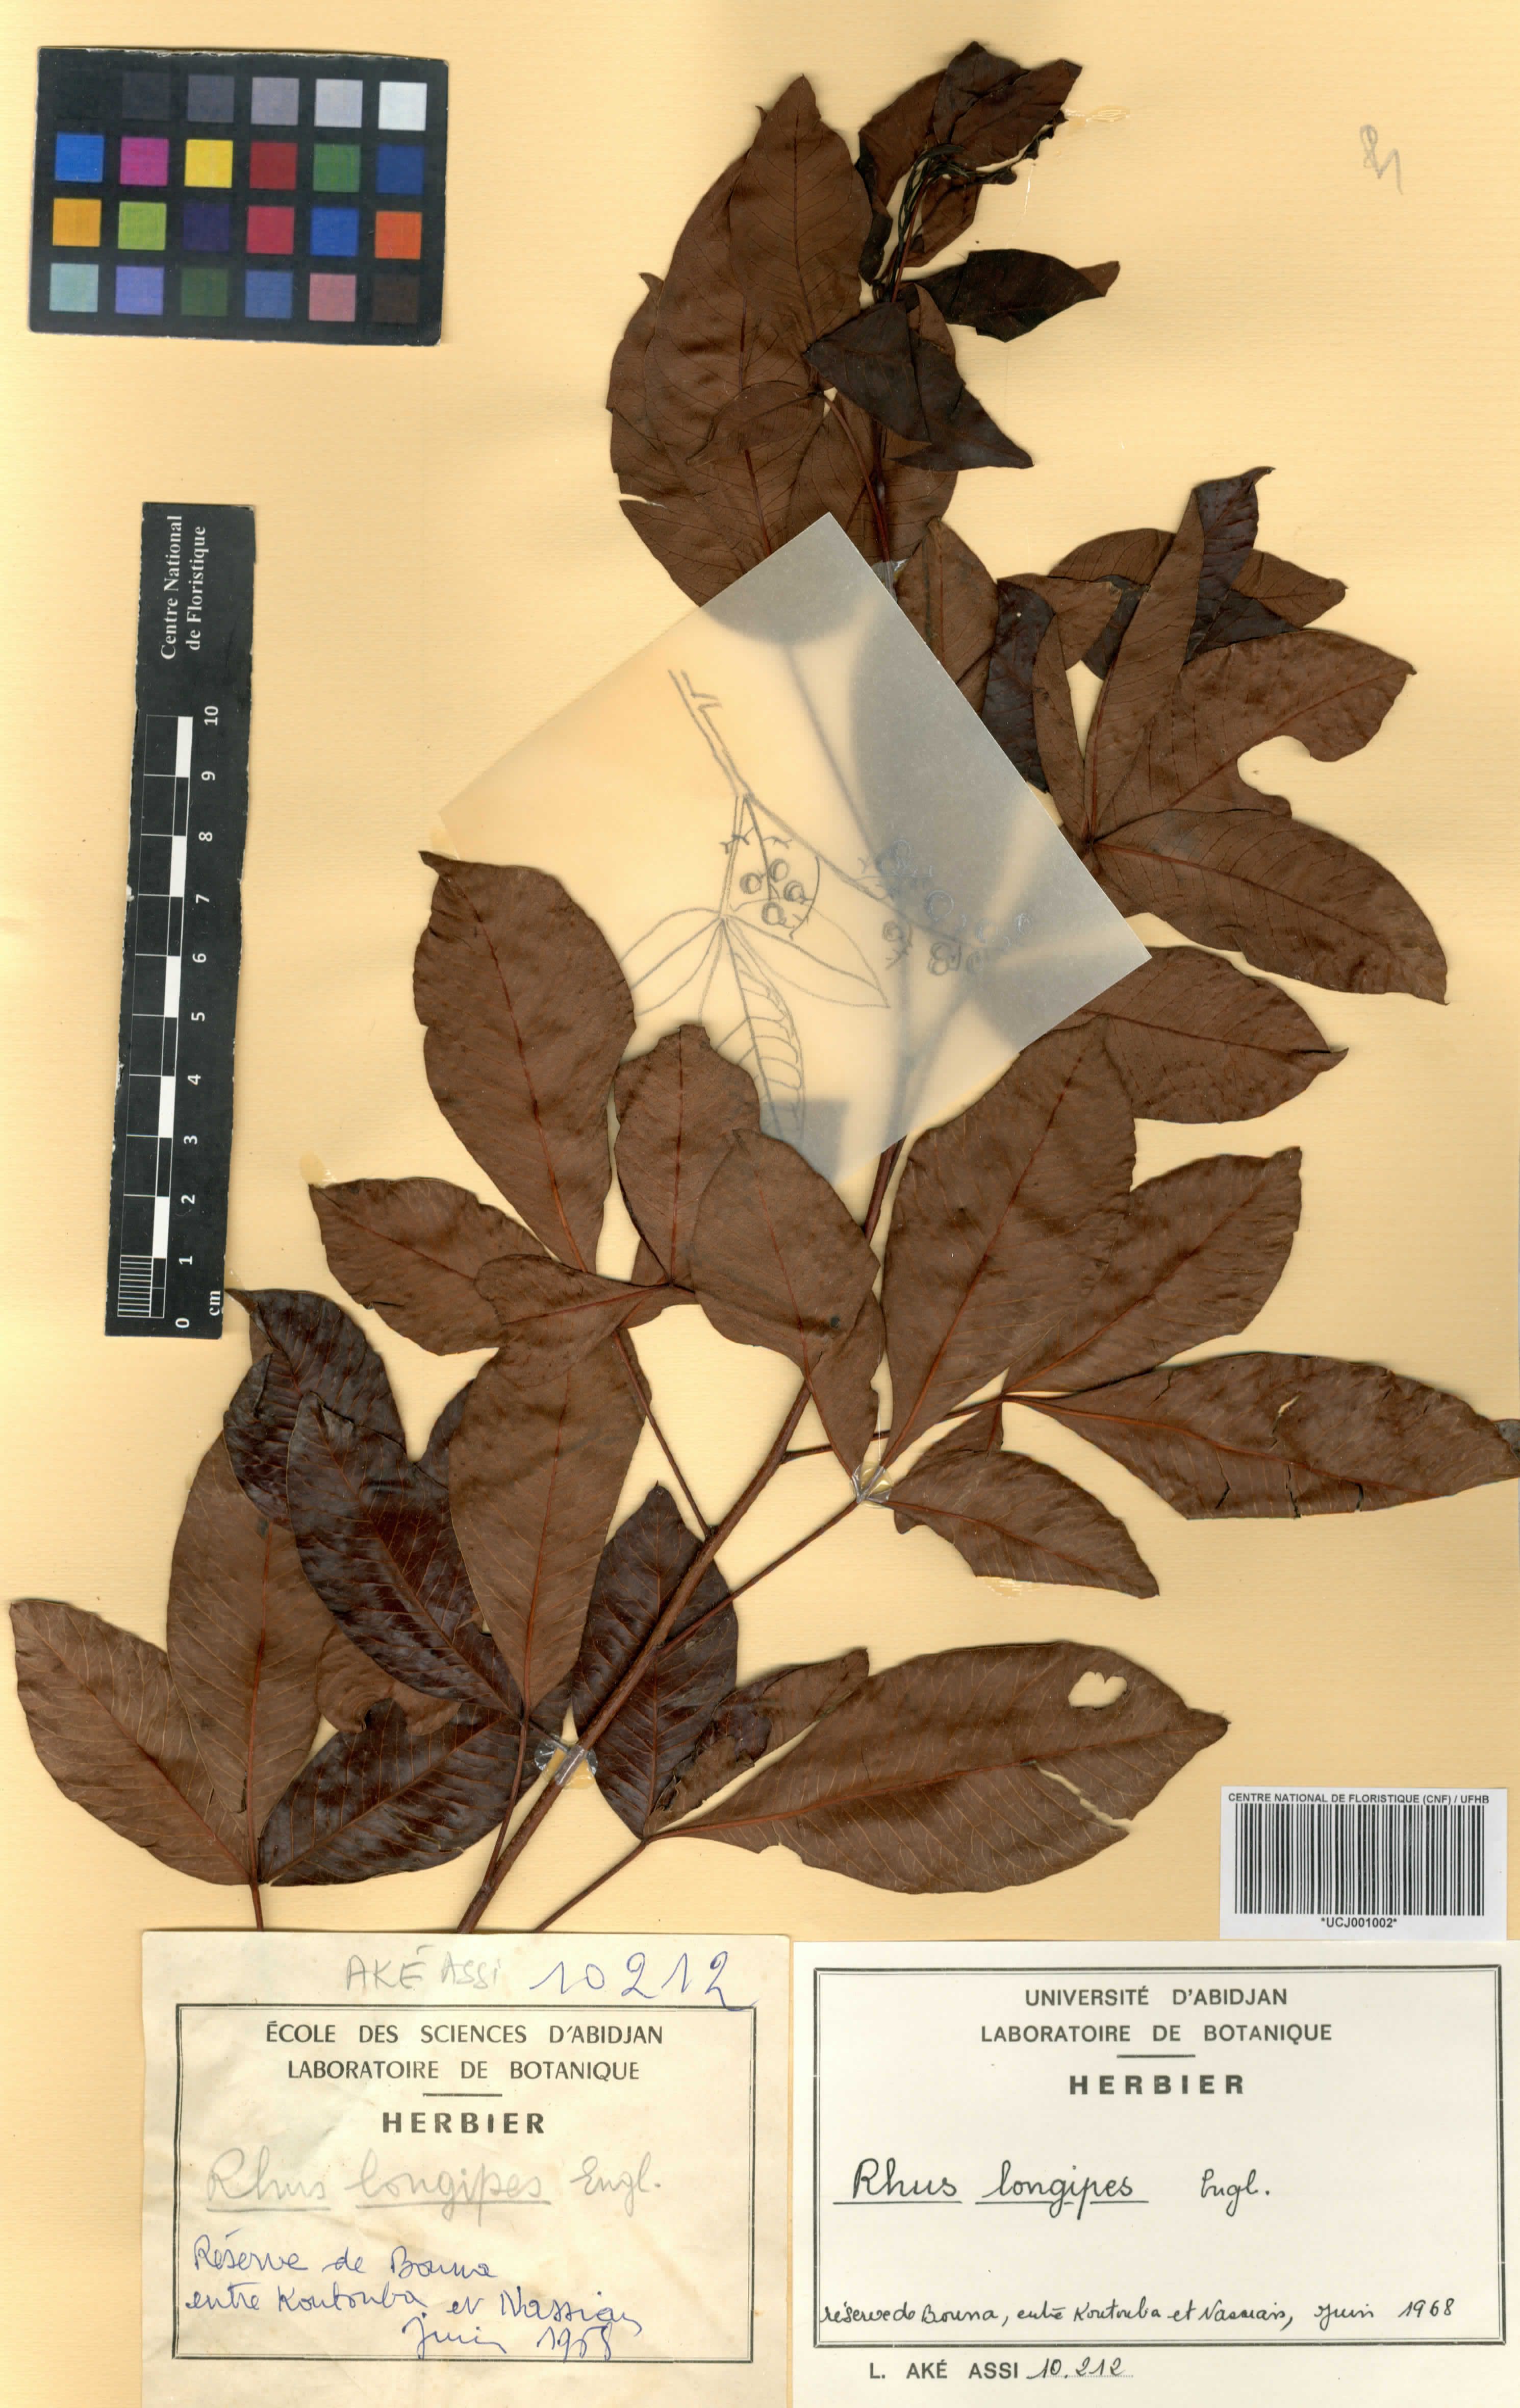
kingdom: Plantae
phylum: Tracheophyta
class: Magnoliopsida
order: Sapindales
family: Anacardiaceae
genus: Searsia
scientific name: Searsia longipes
